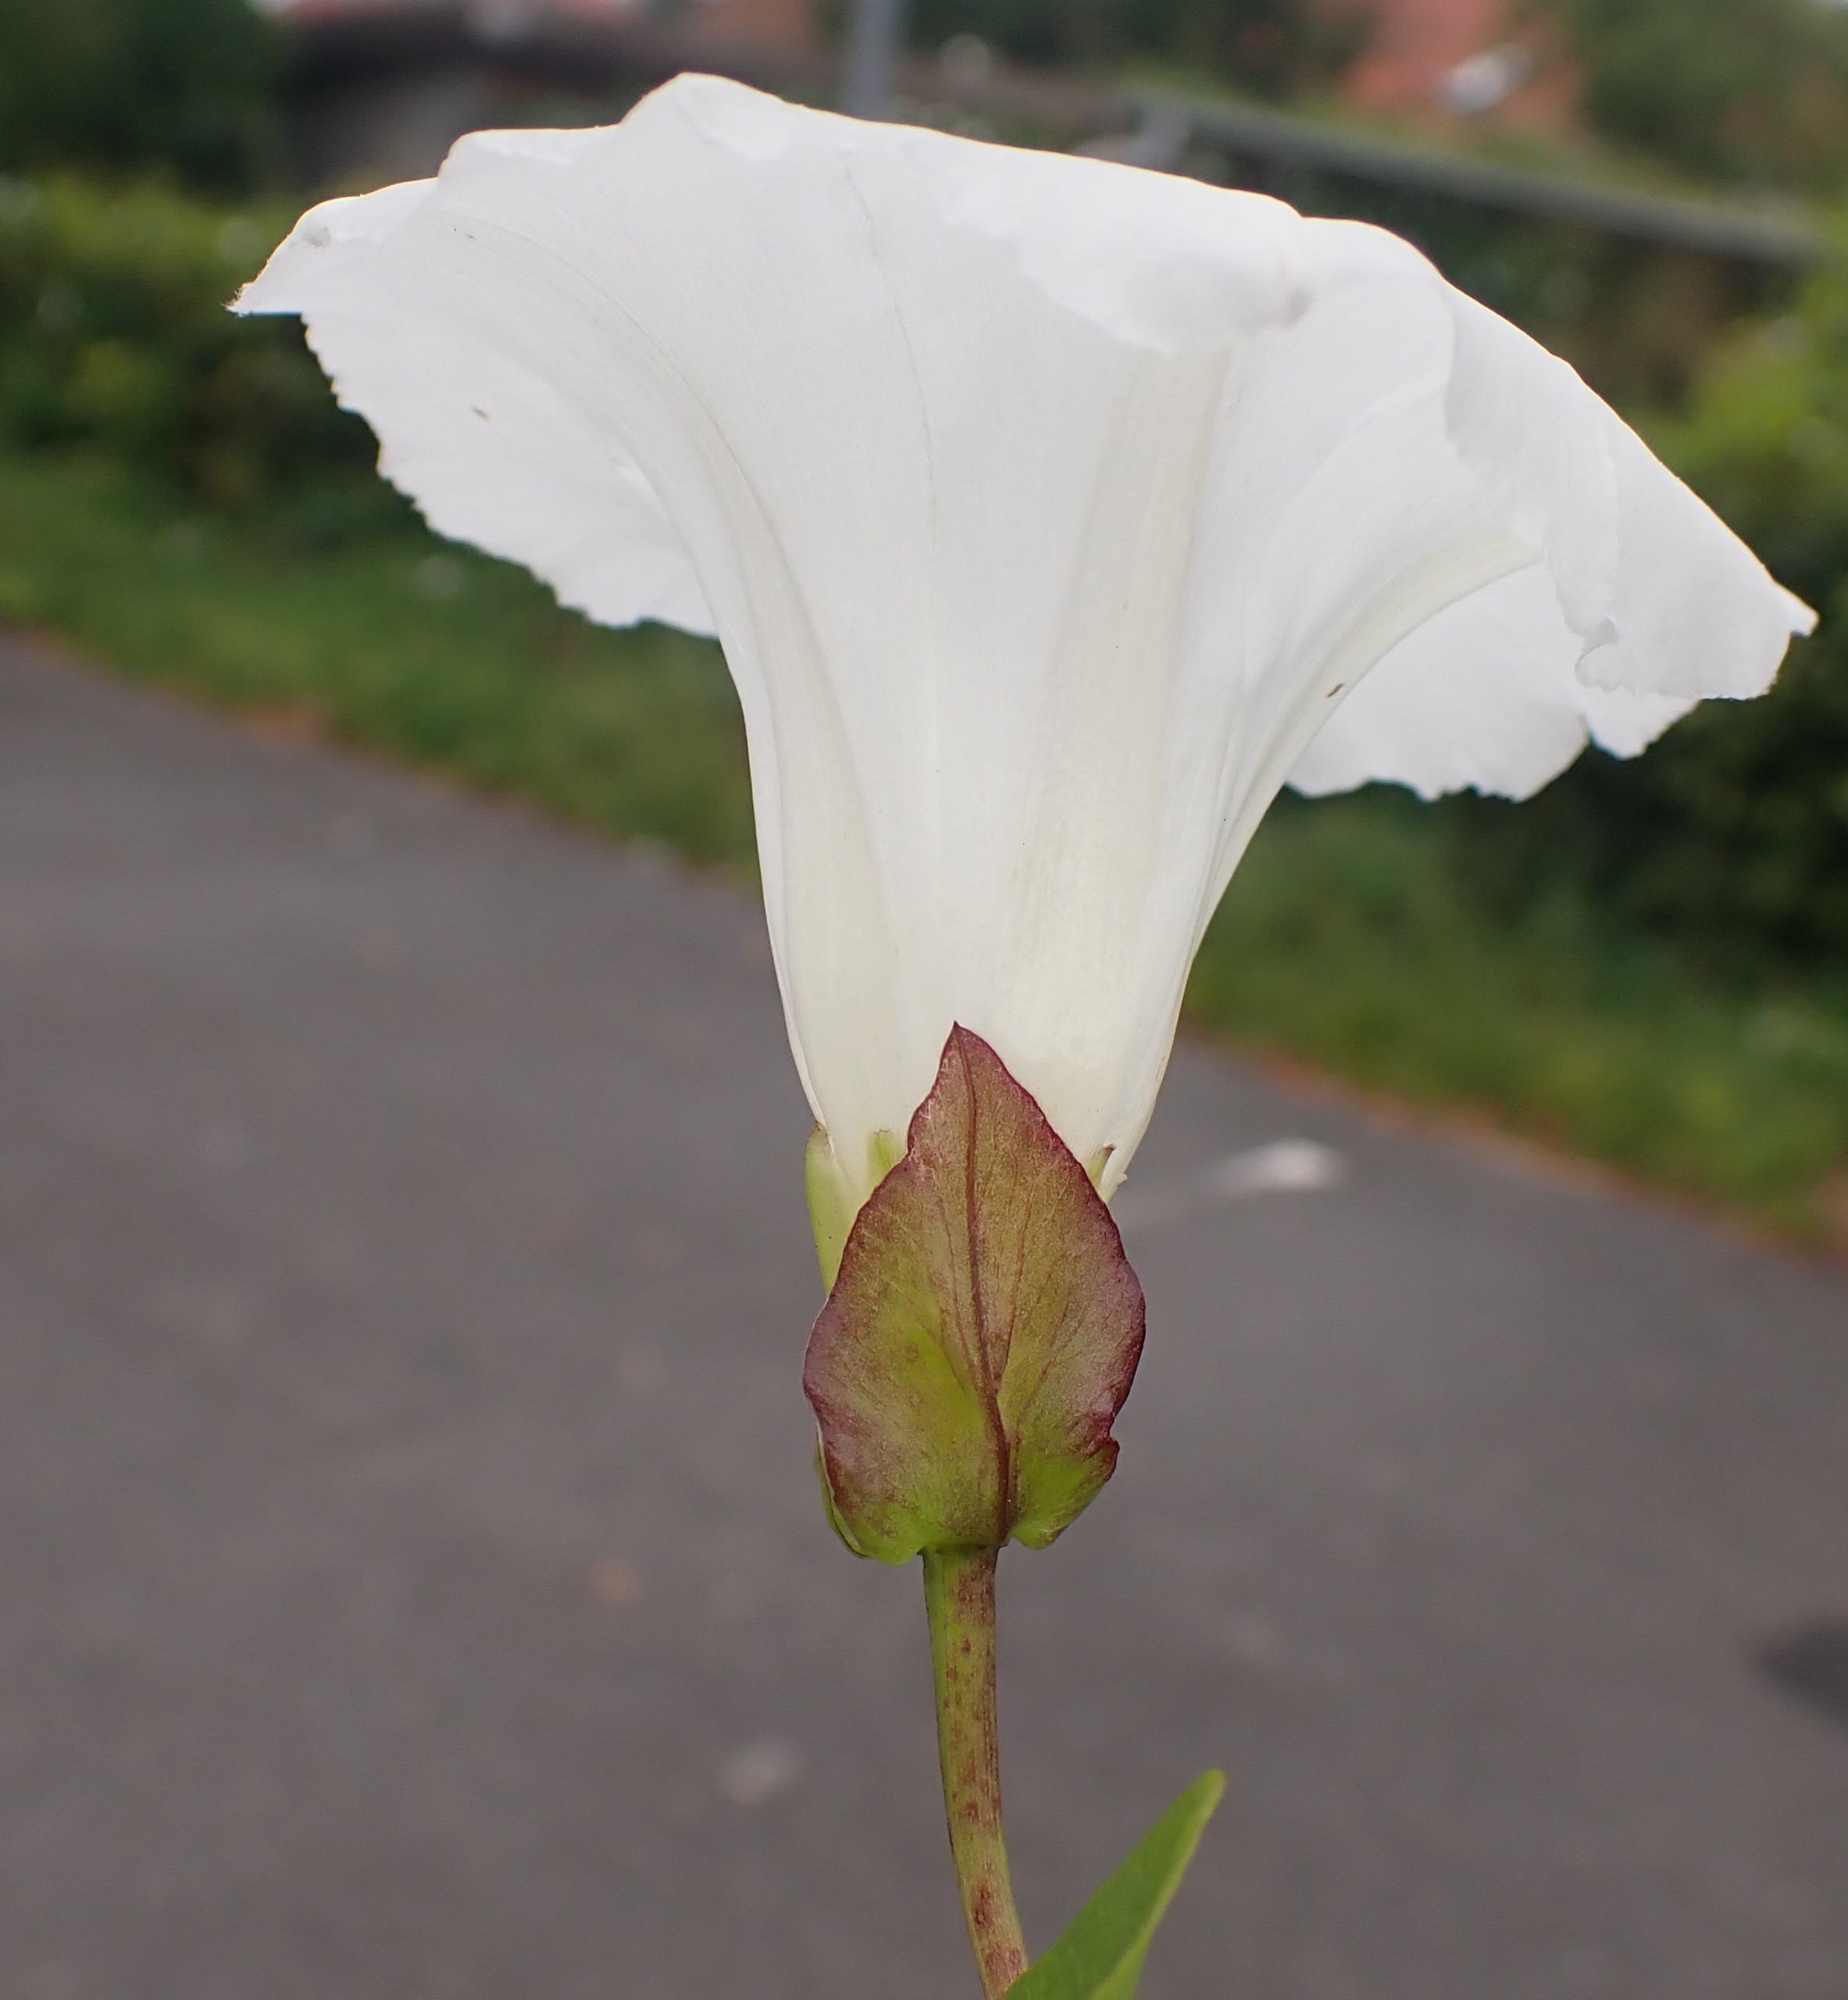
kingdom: Plantae
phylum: Tracheophyta
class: Magnoliopsida
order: Solanales
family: Convolvulaceae
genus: Calystegia
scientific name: Calystegia sepium
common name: Gærde-snerle
